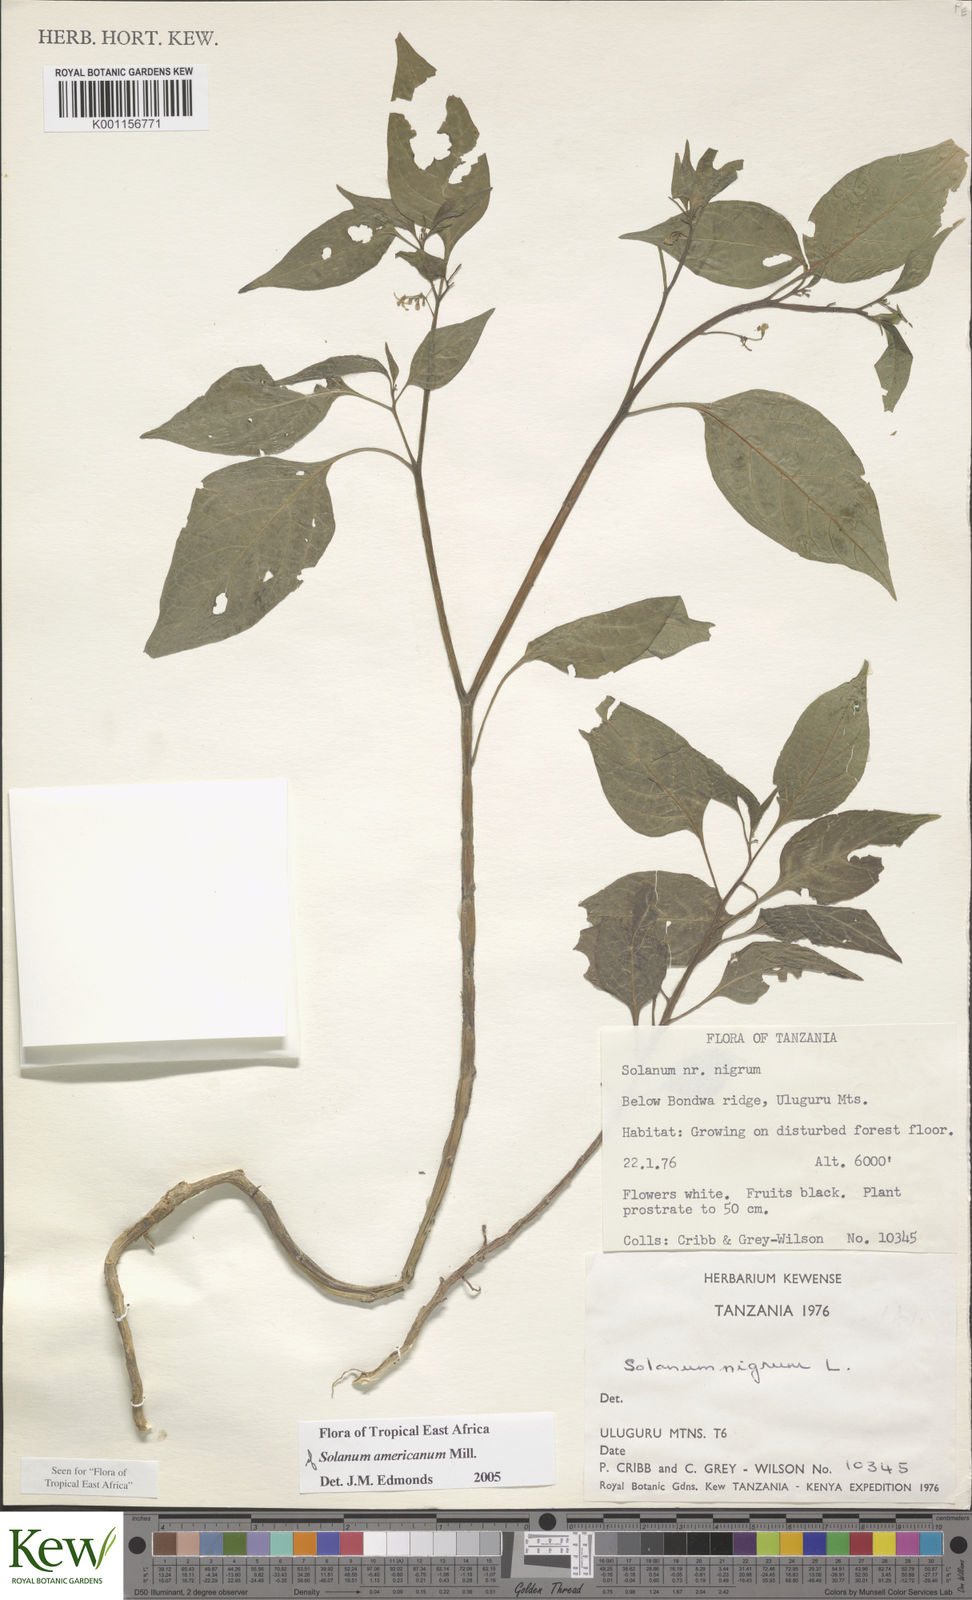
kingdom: Plantae
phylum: Tracheophyta
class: Magnoliopsida
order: Solanales
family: Solanaceae
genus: Solanum
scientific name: Solanum americanum
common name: American black nightshade
